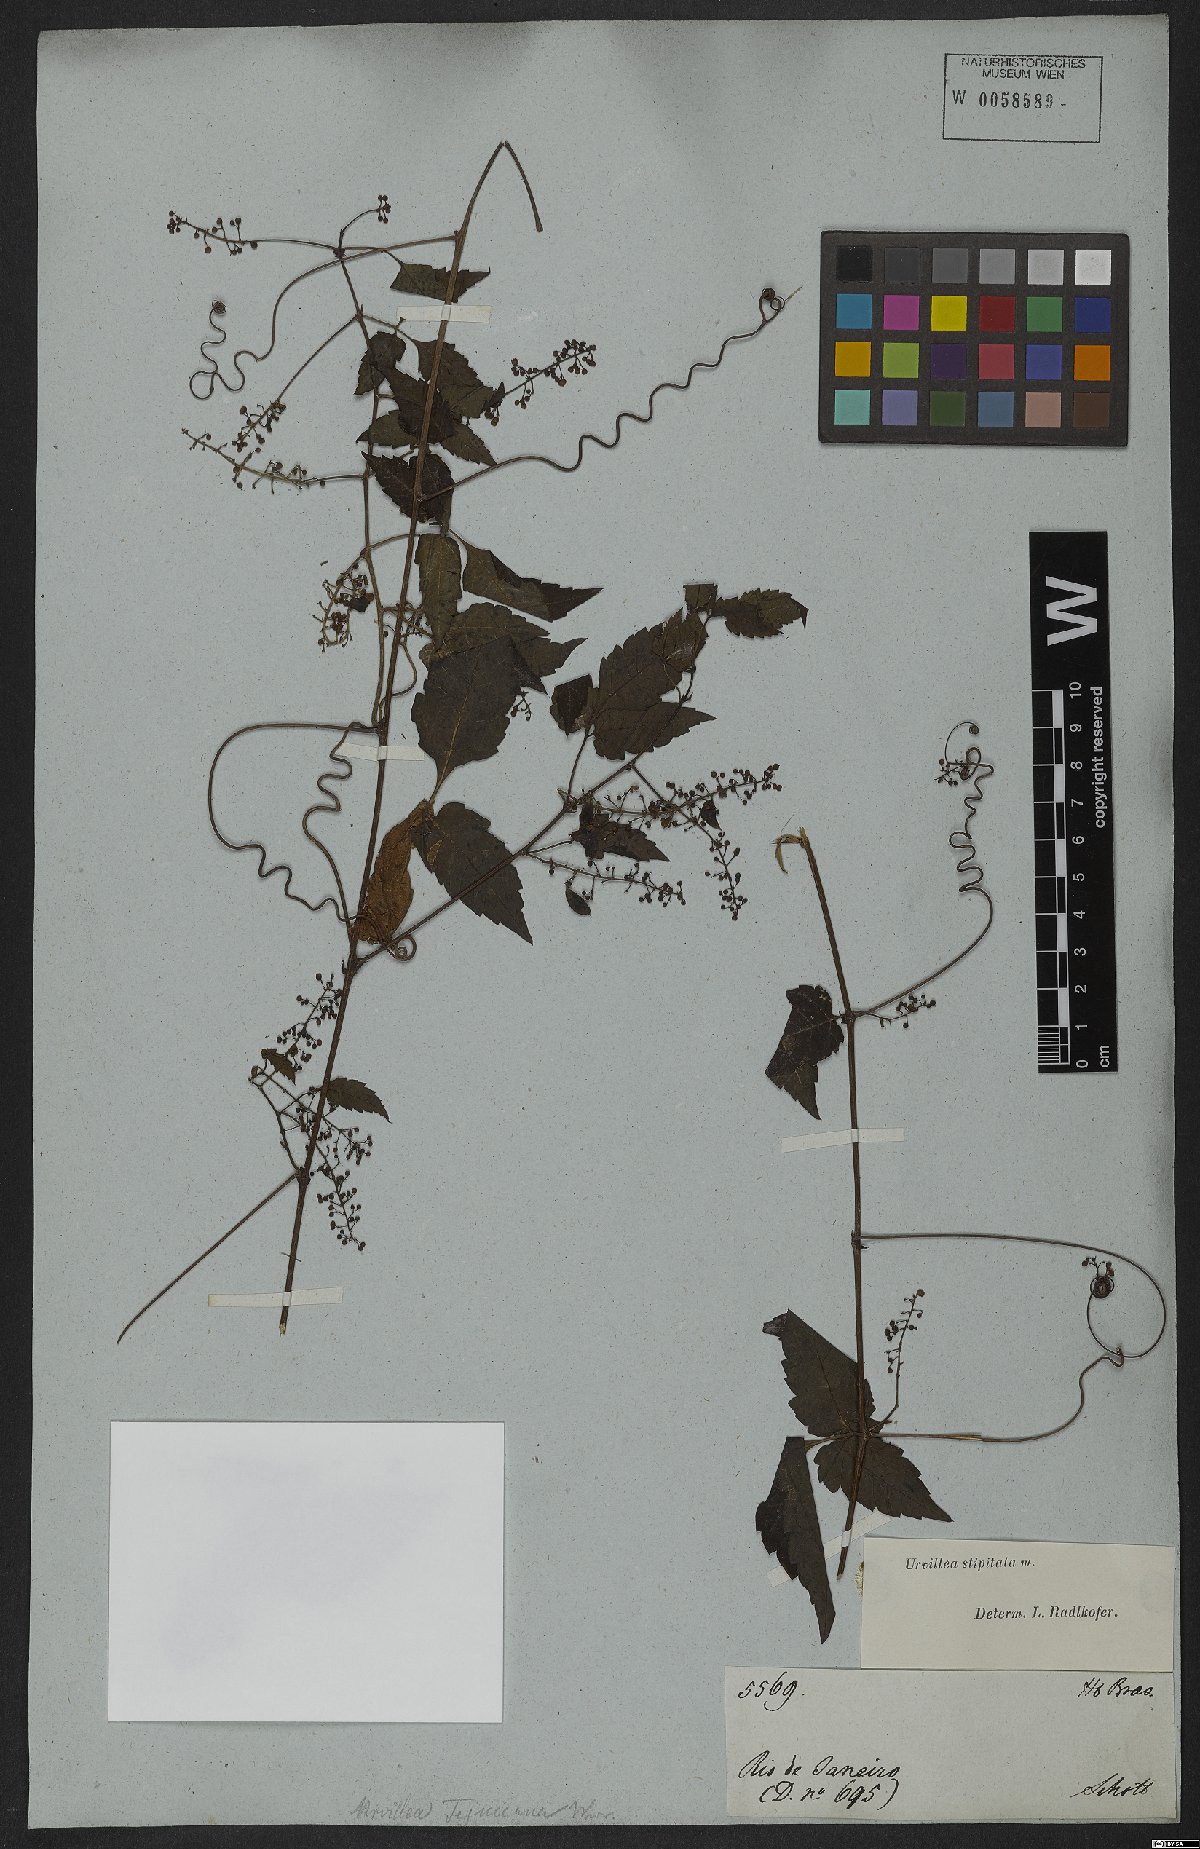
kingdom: Plantae
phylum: Tracheophyta
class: Magnoliopsida
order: Sapindales
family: Sapindaceae
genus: Urvillea
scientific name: Urvillea stipitata
